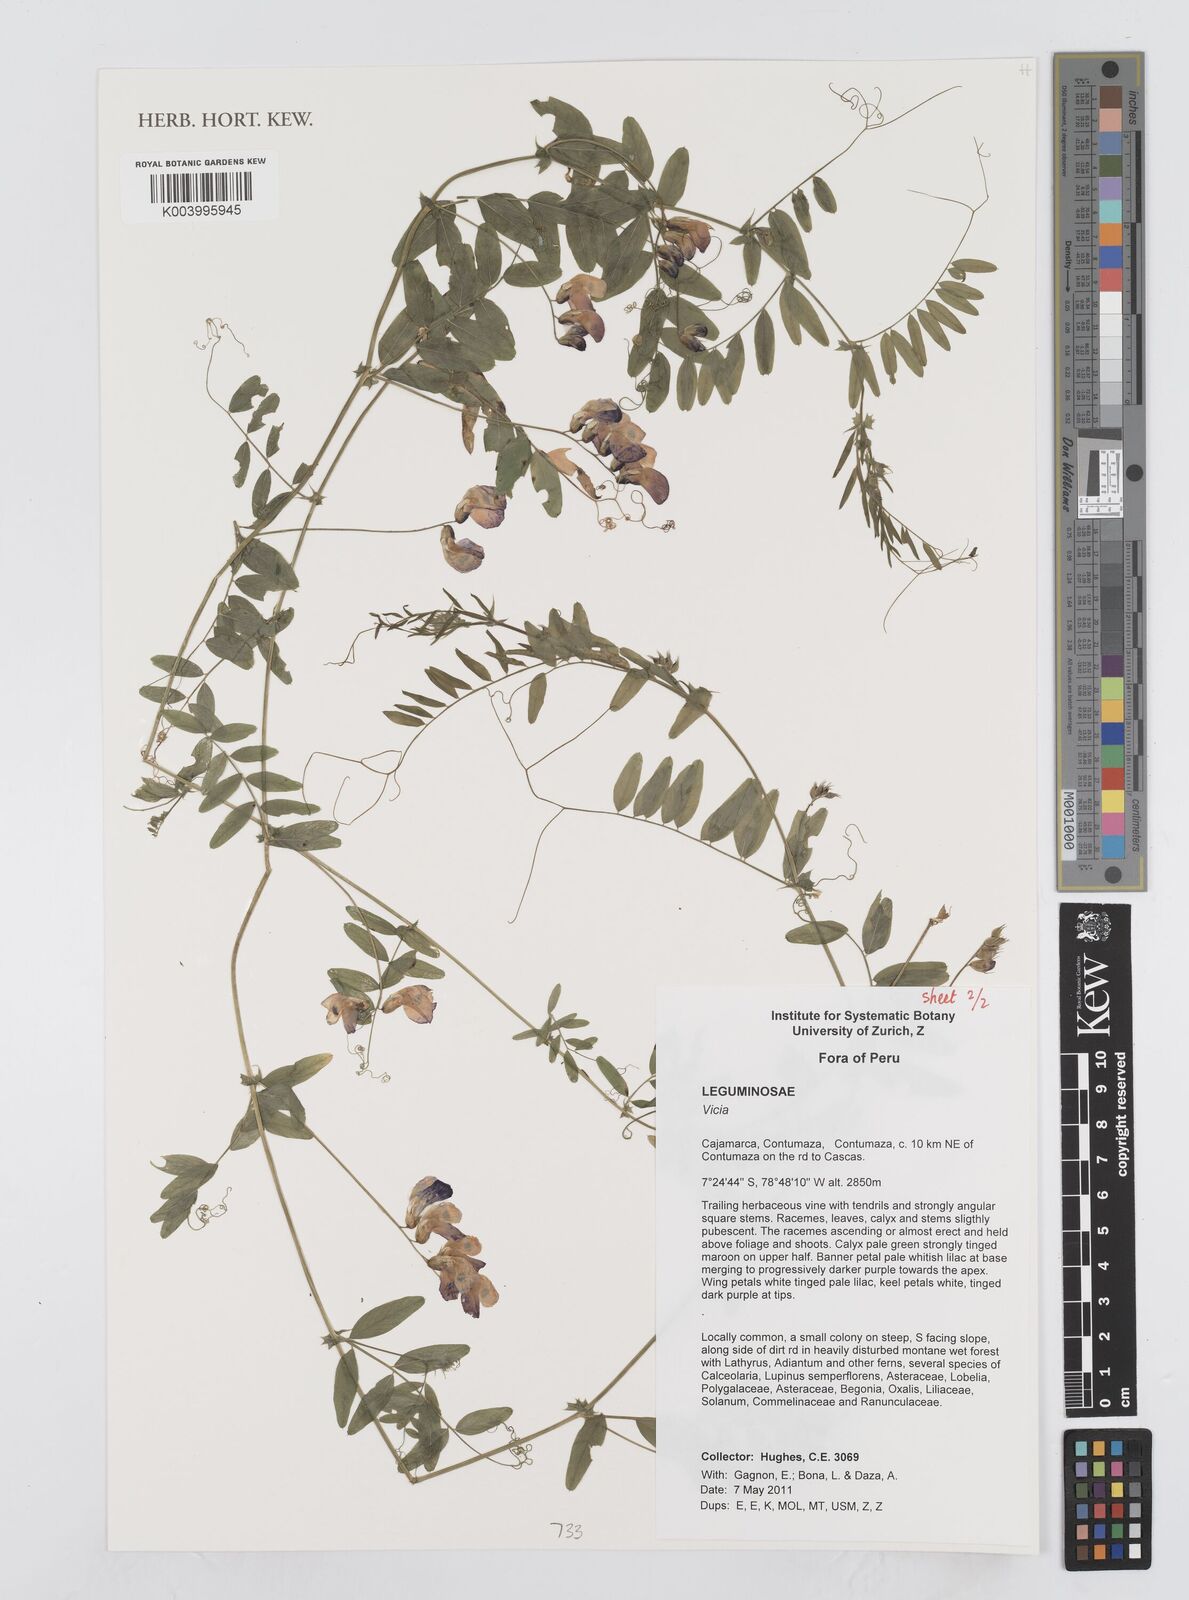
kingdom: Plantae
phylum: Tracheophyta
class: Magnoliopsida
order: Fabales
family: Fabaceae
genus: Vicia
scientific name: Vicia
